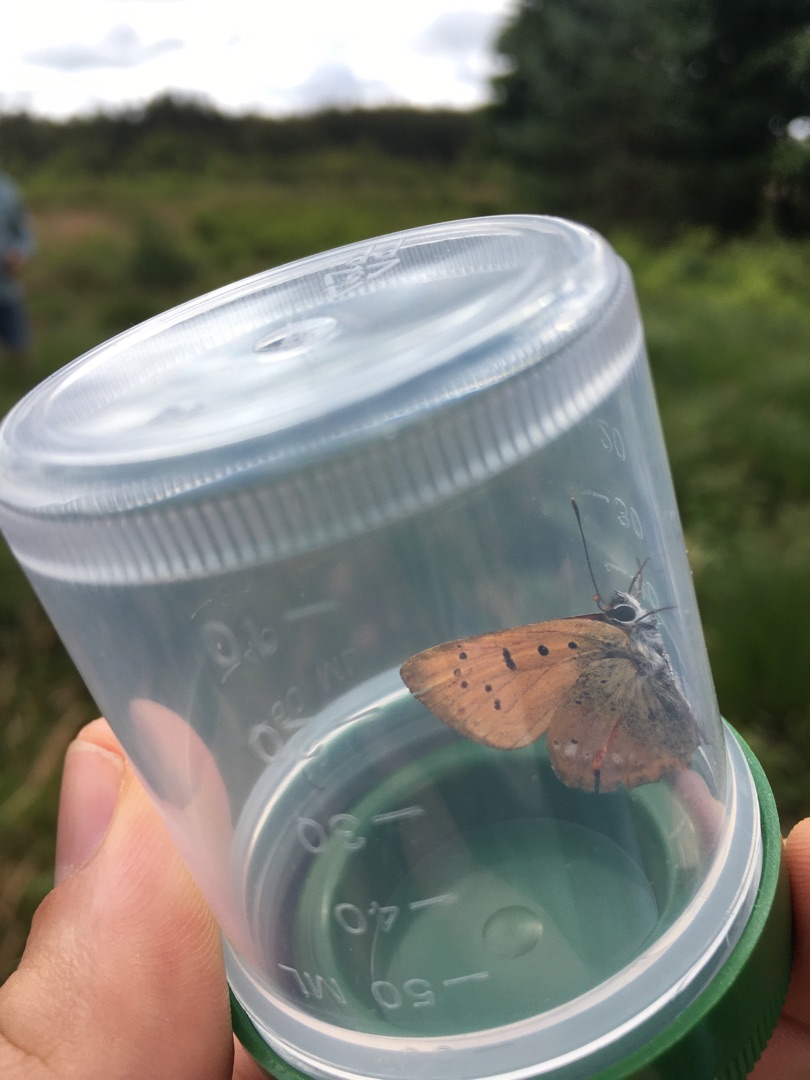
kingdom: Animalia
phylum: Arthropoda
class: Insecta
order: Lepidoptera
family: Lycaenidae
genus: Lycaena
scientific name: Lycaena virgaureae
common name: Dukatsommerfugl
